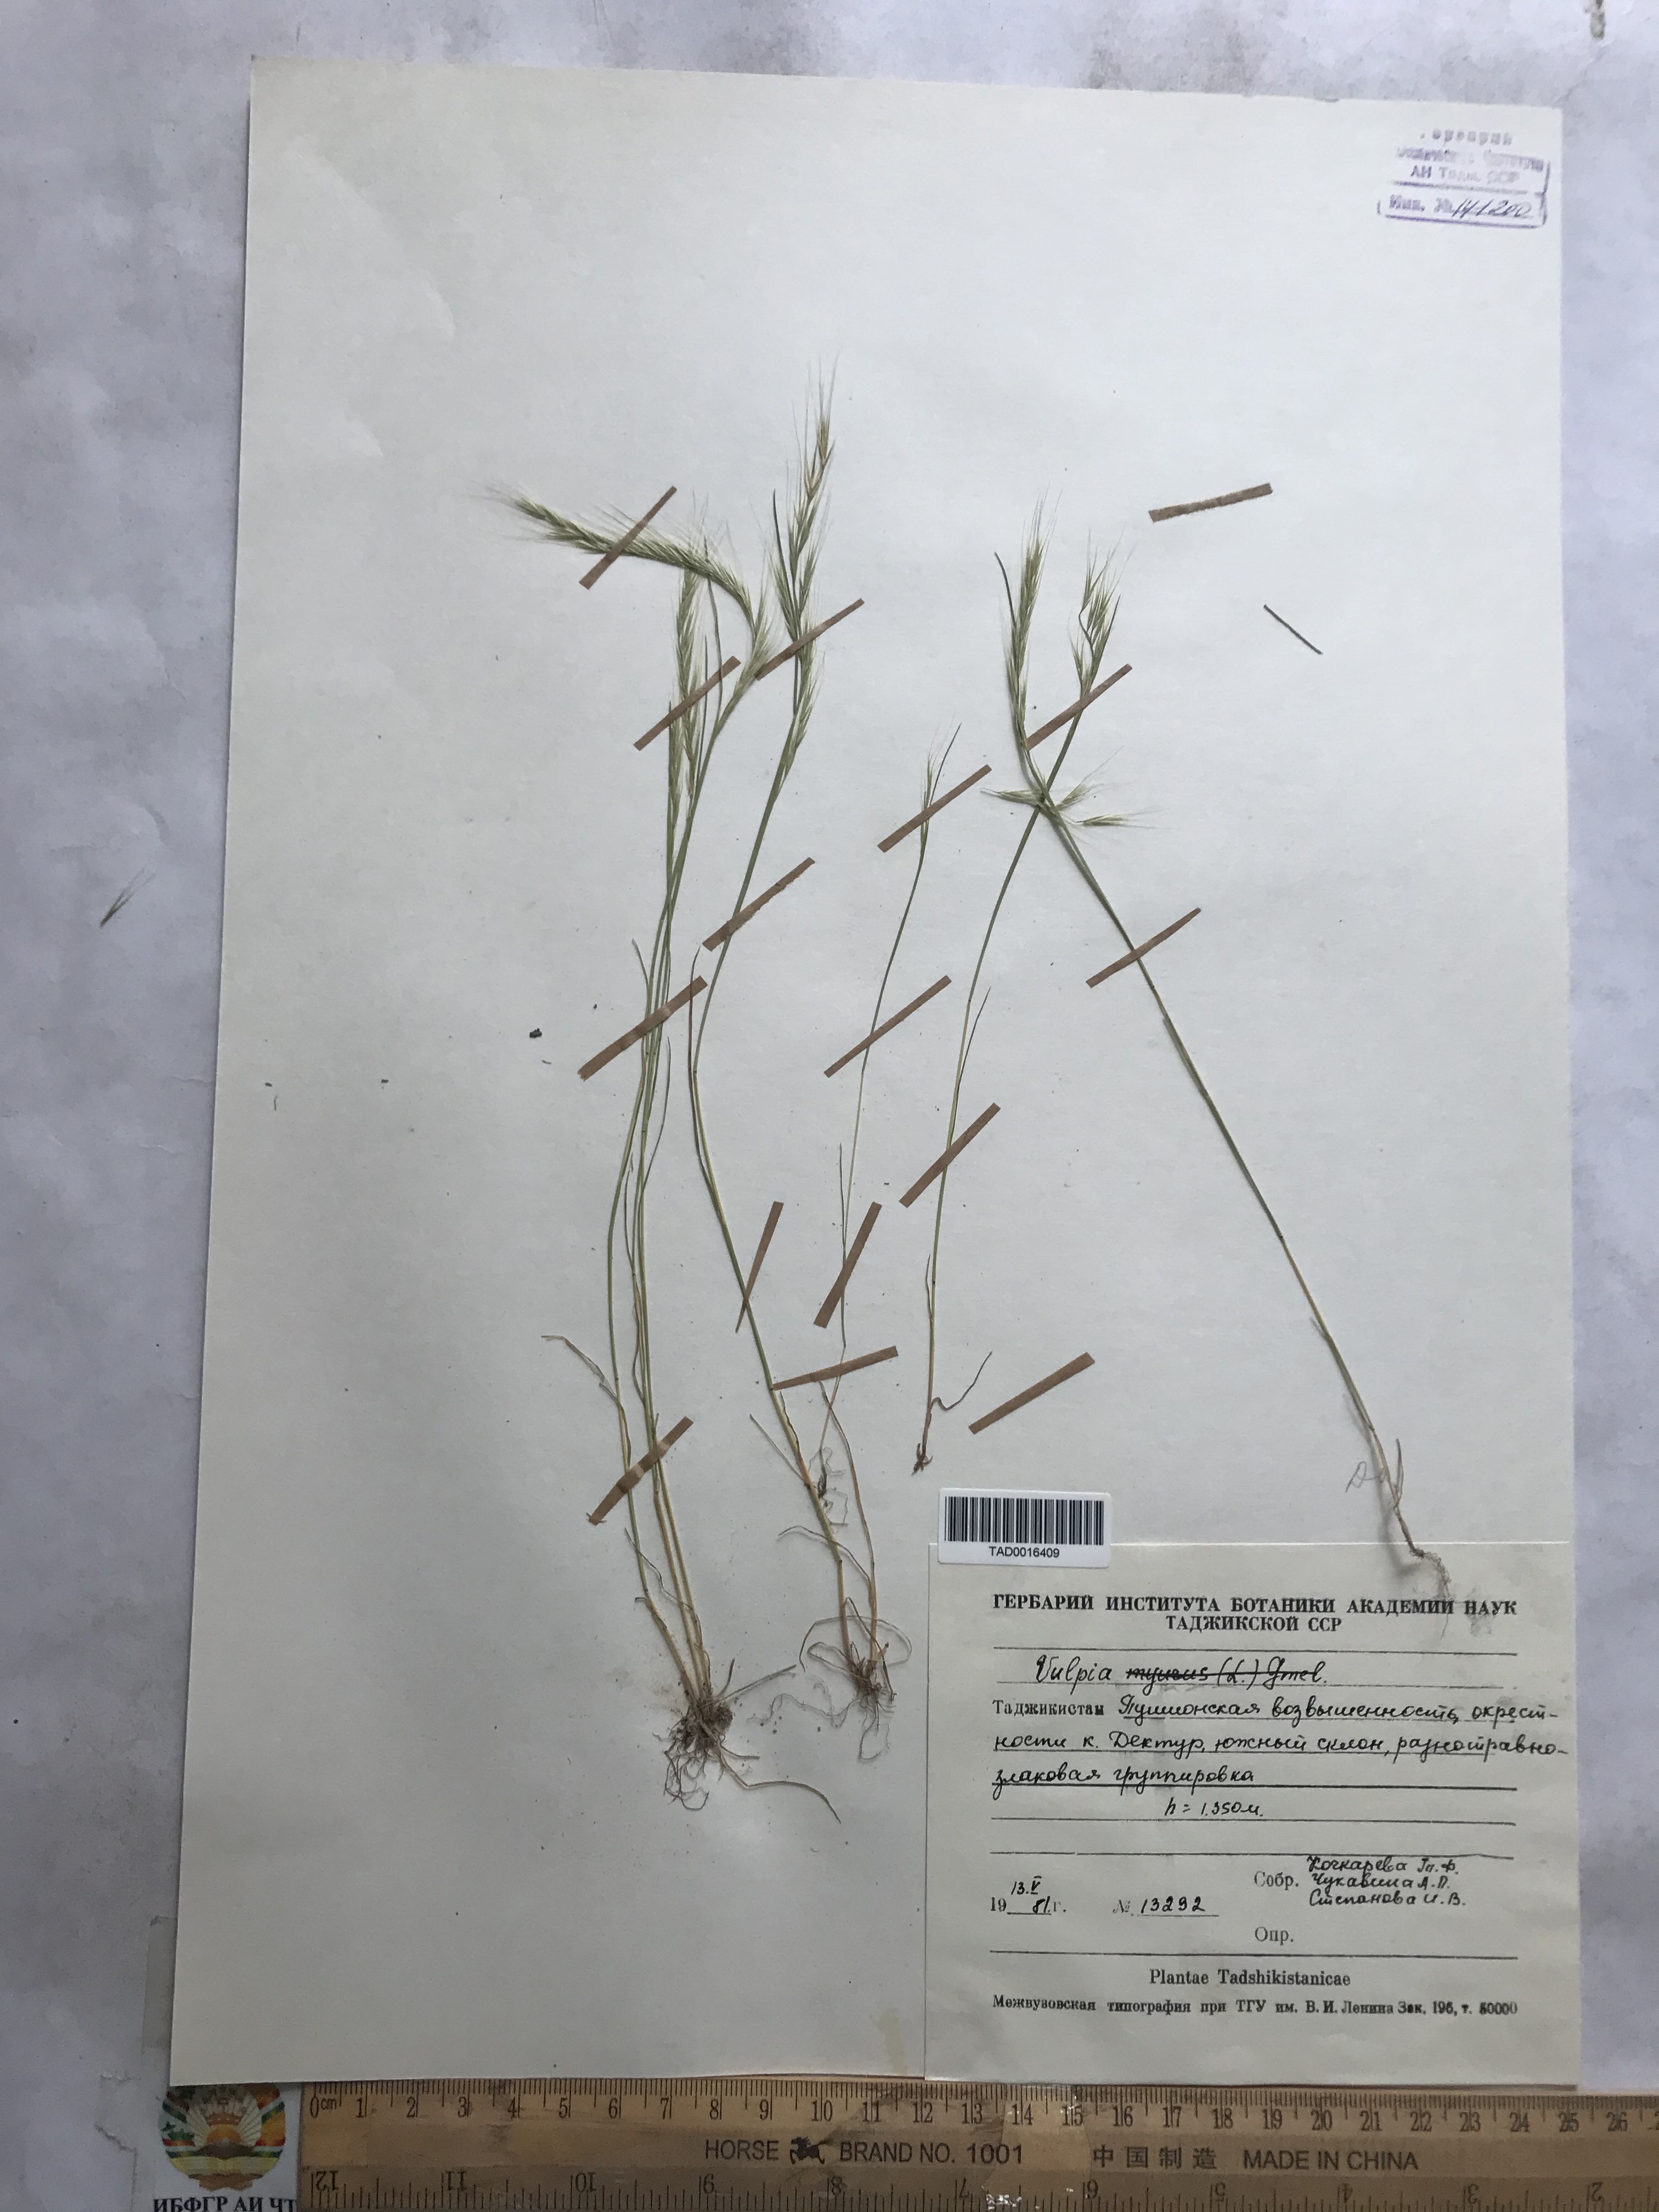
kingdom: Plantae
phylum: Tracheophyta
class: Liliopsida
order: Poales
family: Poaceae
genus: Festuca
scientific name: Festuca myuros
